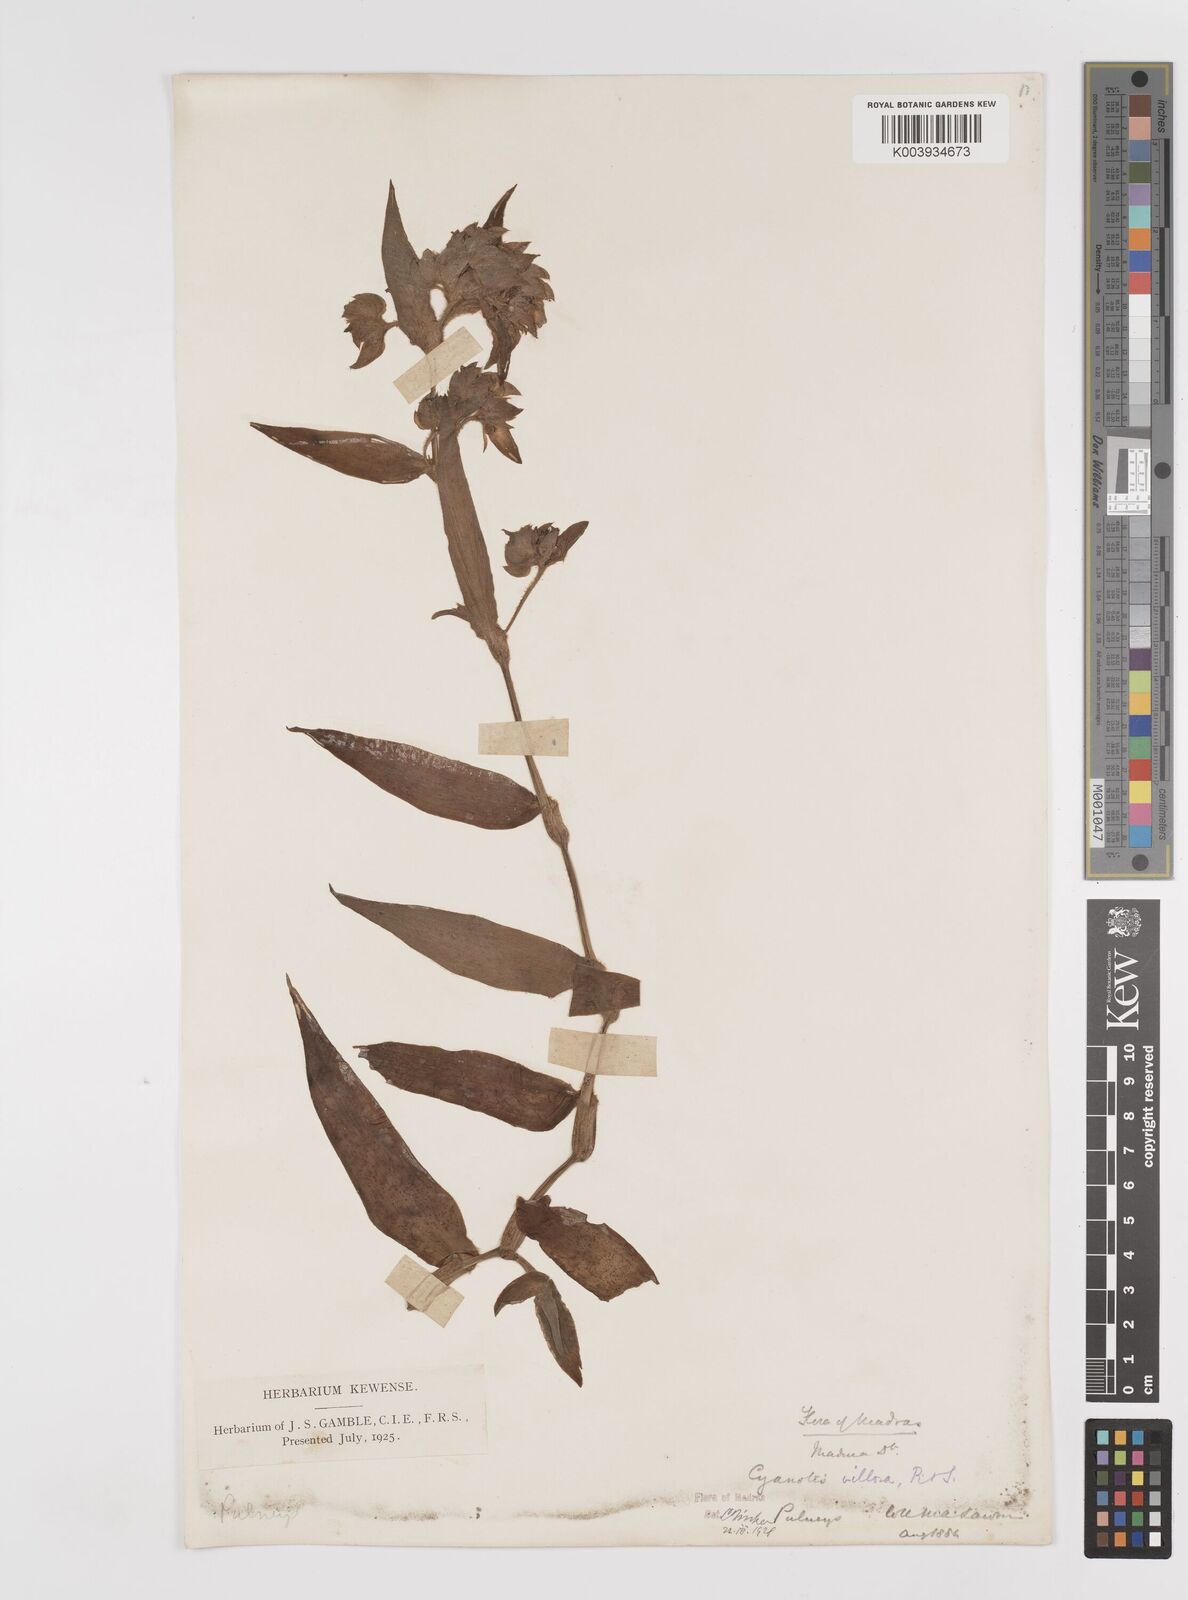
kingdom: Plantae
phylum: Tracheophyta
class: Liliopsida
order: Commelinales
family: Commelinaceae
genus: Cyanotis
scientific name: Cyanotis villosa
